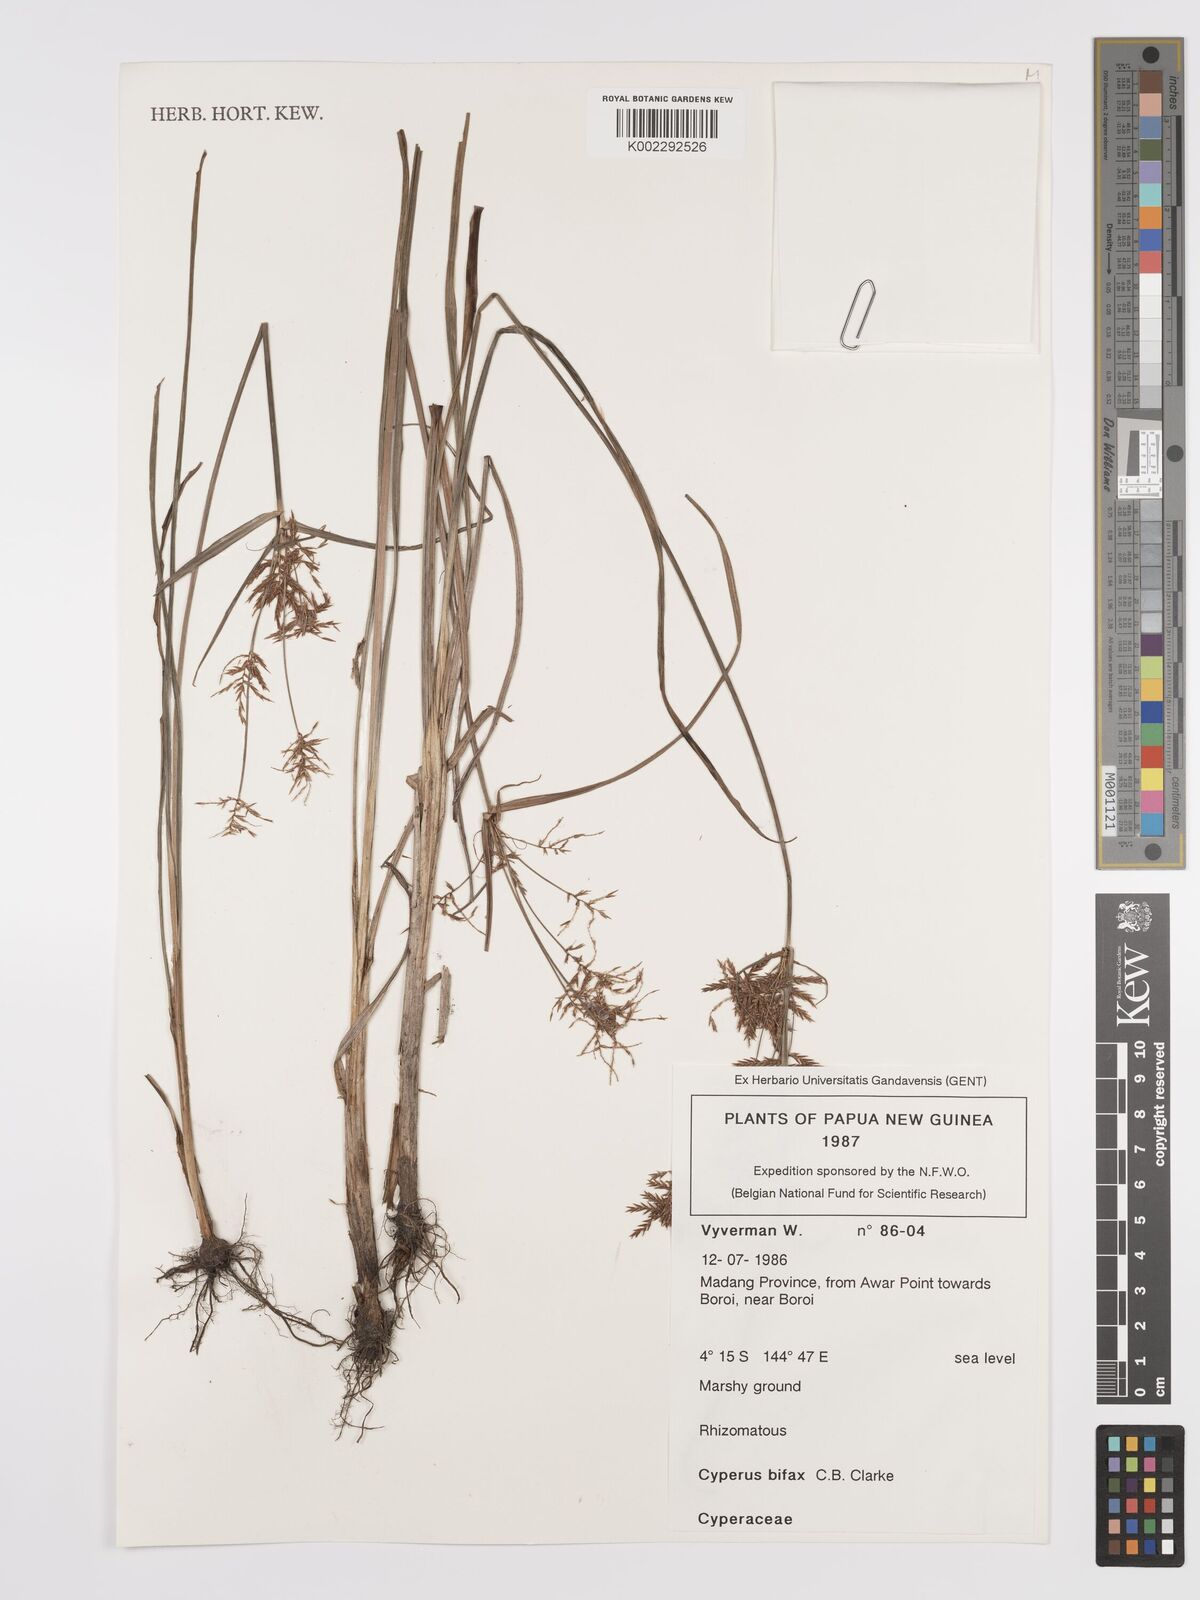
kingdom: Plantae
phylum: Tracheophyta
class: Liliopsida
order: Poales
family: Cyperaceae
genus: Cyperus
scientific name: Cyperus bifax
